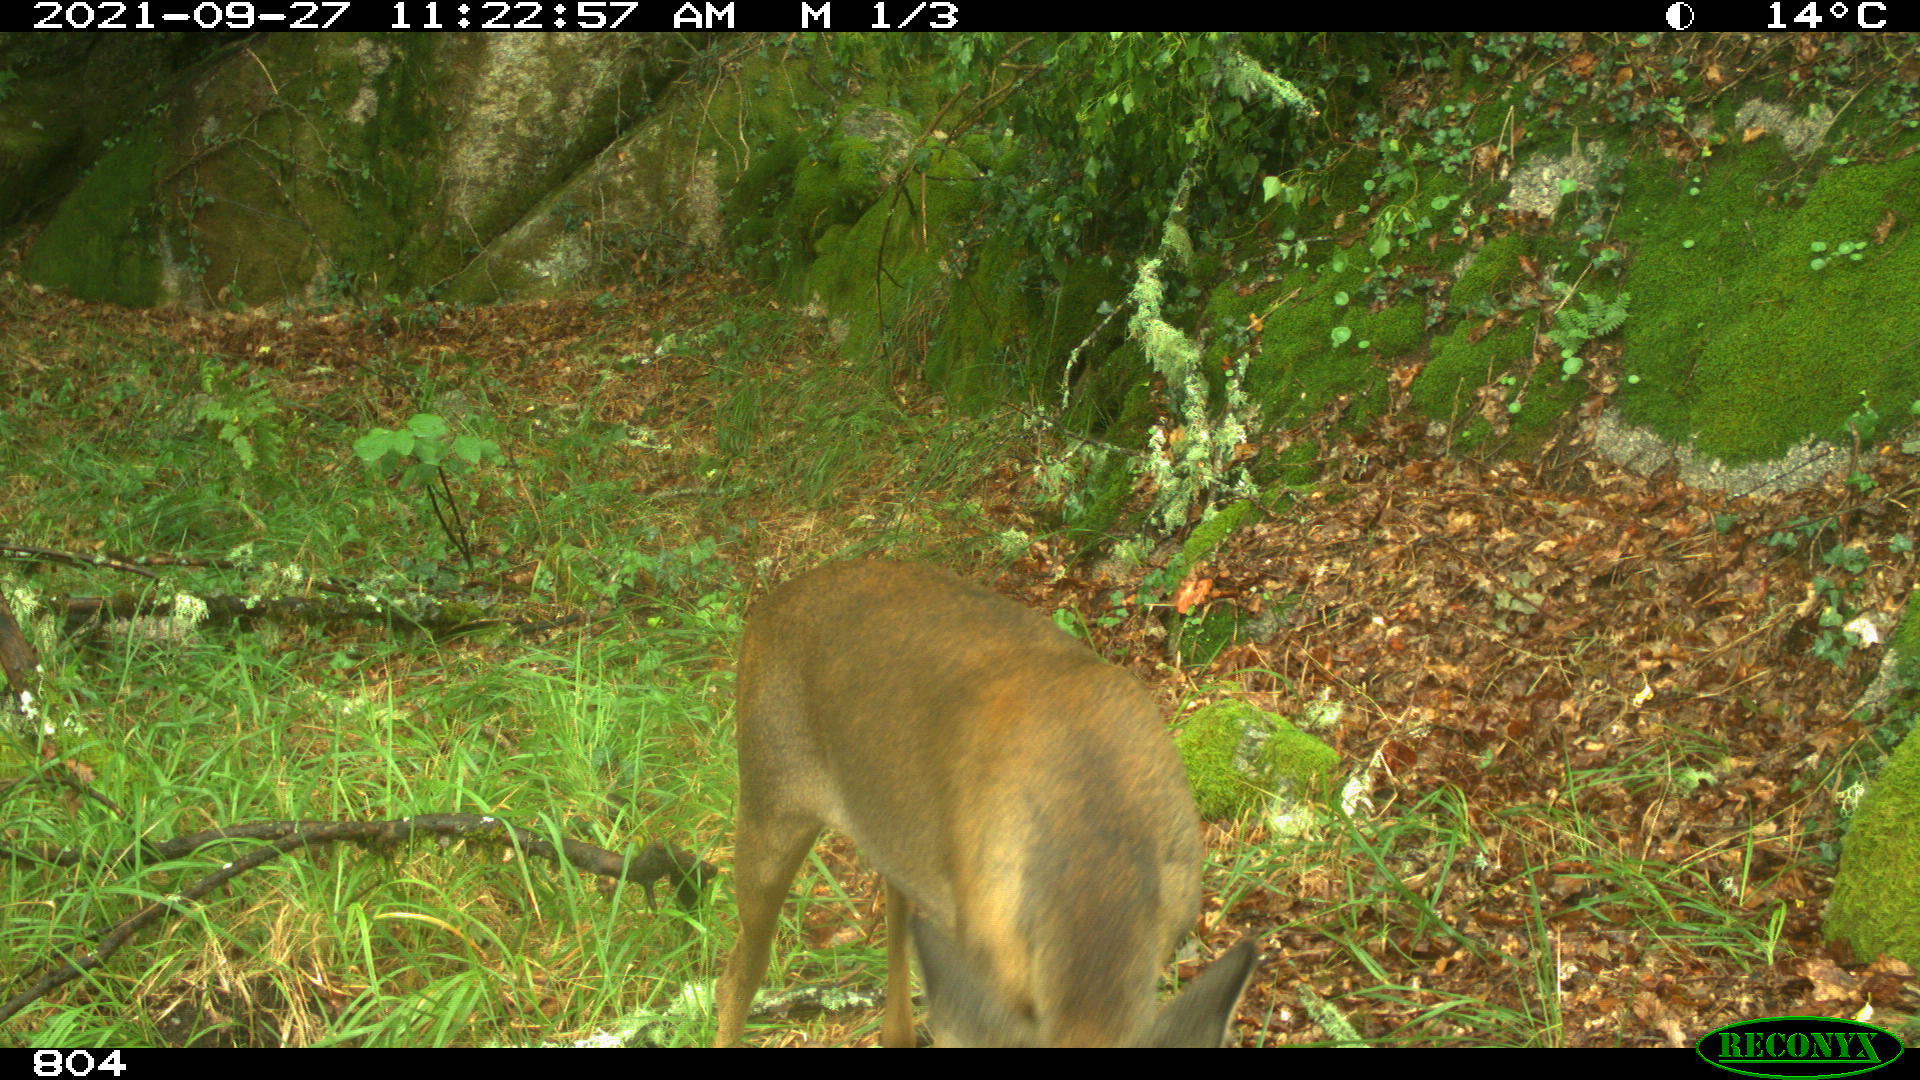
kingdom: Animalia
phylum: Chordata
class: Mammalia
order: Artiodactyla
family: Cervidae
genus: Capreolus
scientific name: Capreolus capreolus
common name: Western roe deer
